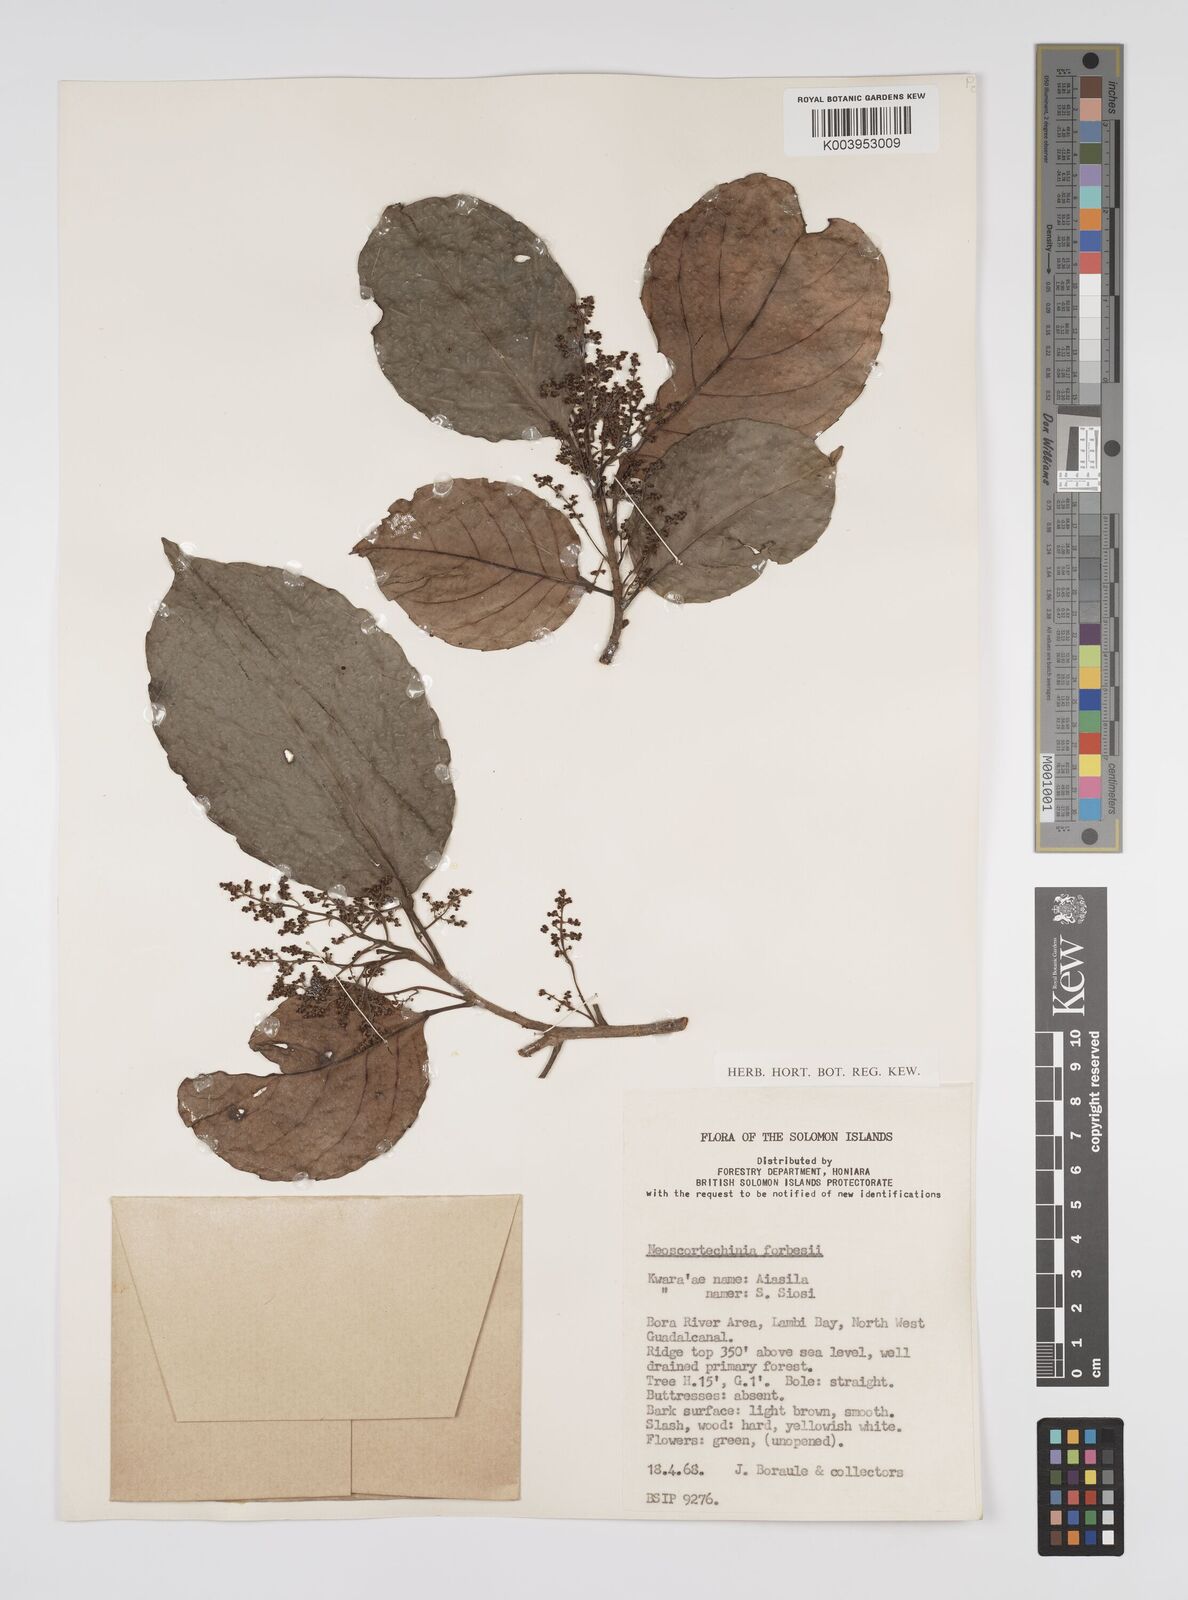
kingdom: Plantae
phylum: Tracheophyta
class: Magnoliopsida
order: Malpighiales
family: Euphorbiaceae
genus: Neoscortechinia
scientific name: Neoscortechinia forbesii
